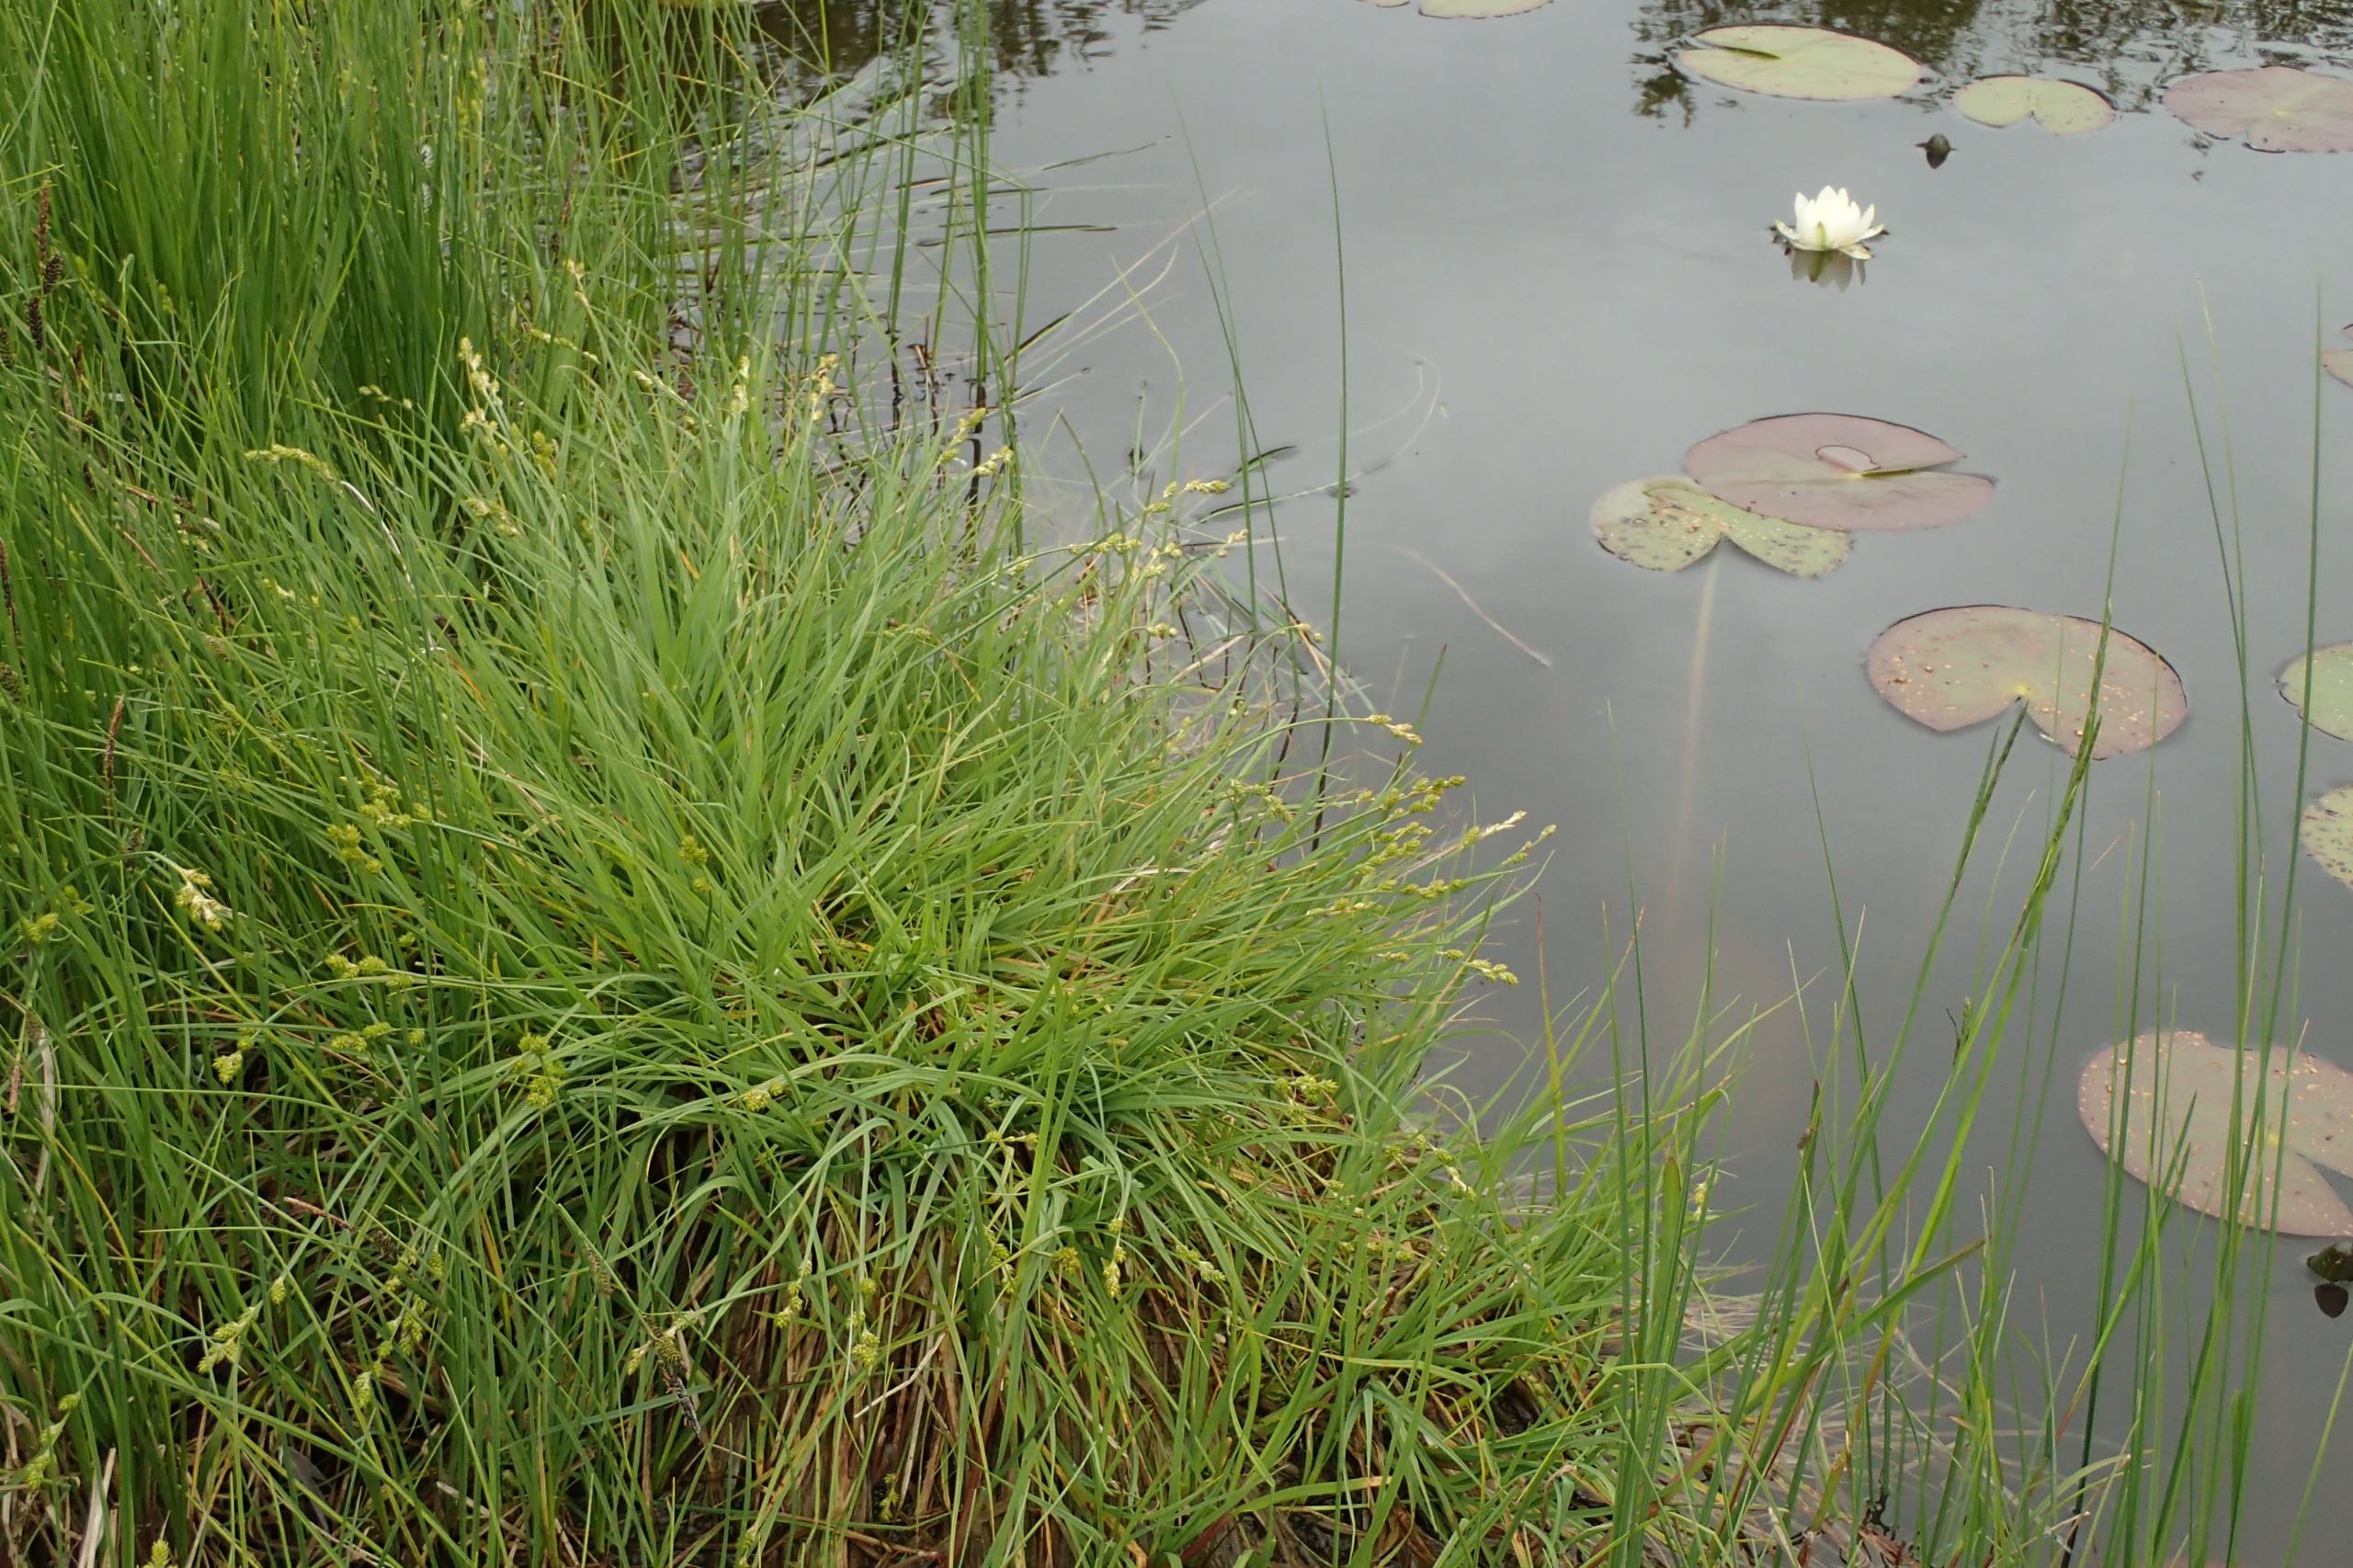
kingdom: Plantae
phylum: Tracheophyta
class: Liliopsida
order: Poales
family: Cyperaceae
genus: Carex
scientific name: Carex canescens
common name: Grå star
